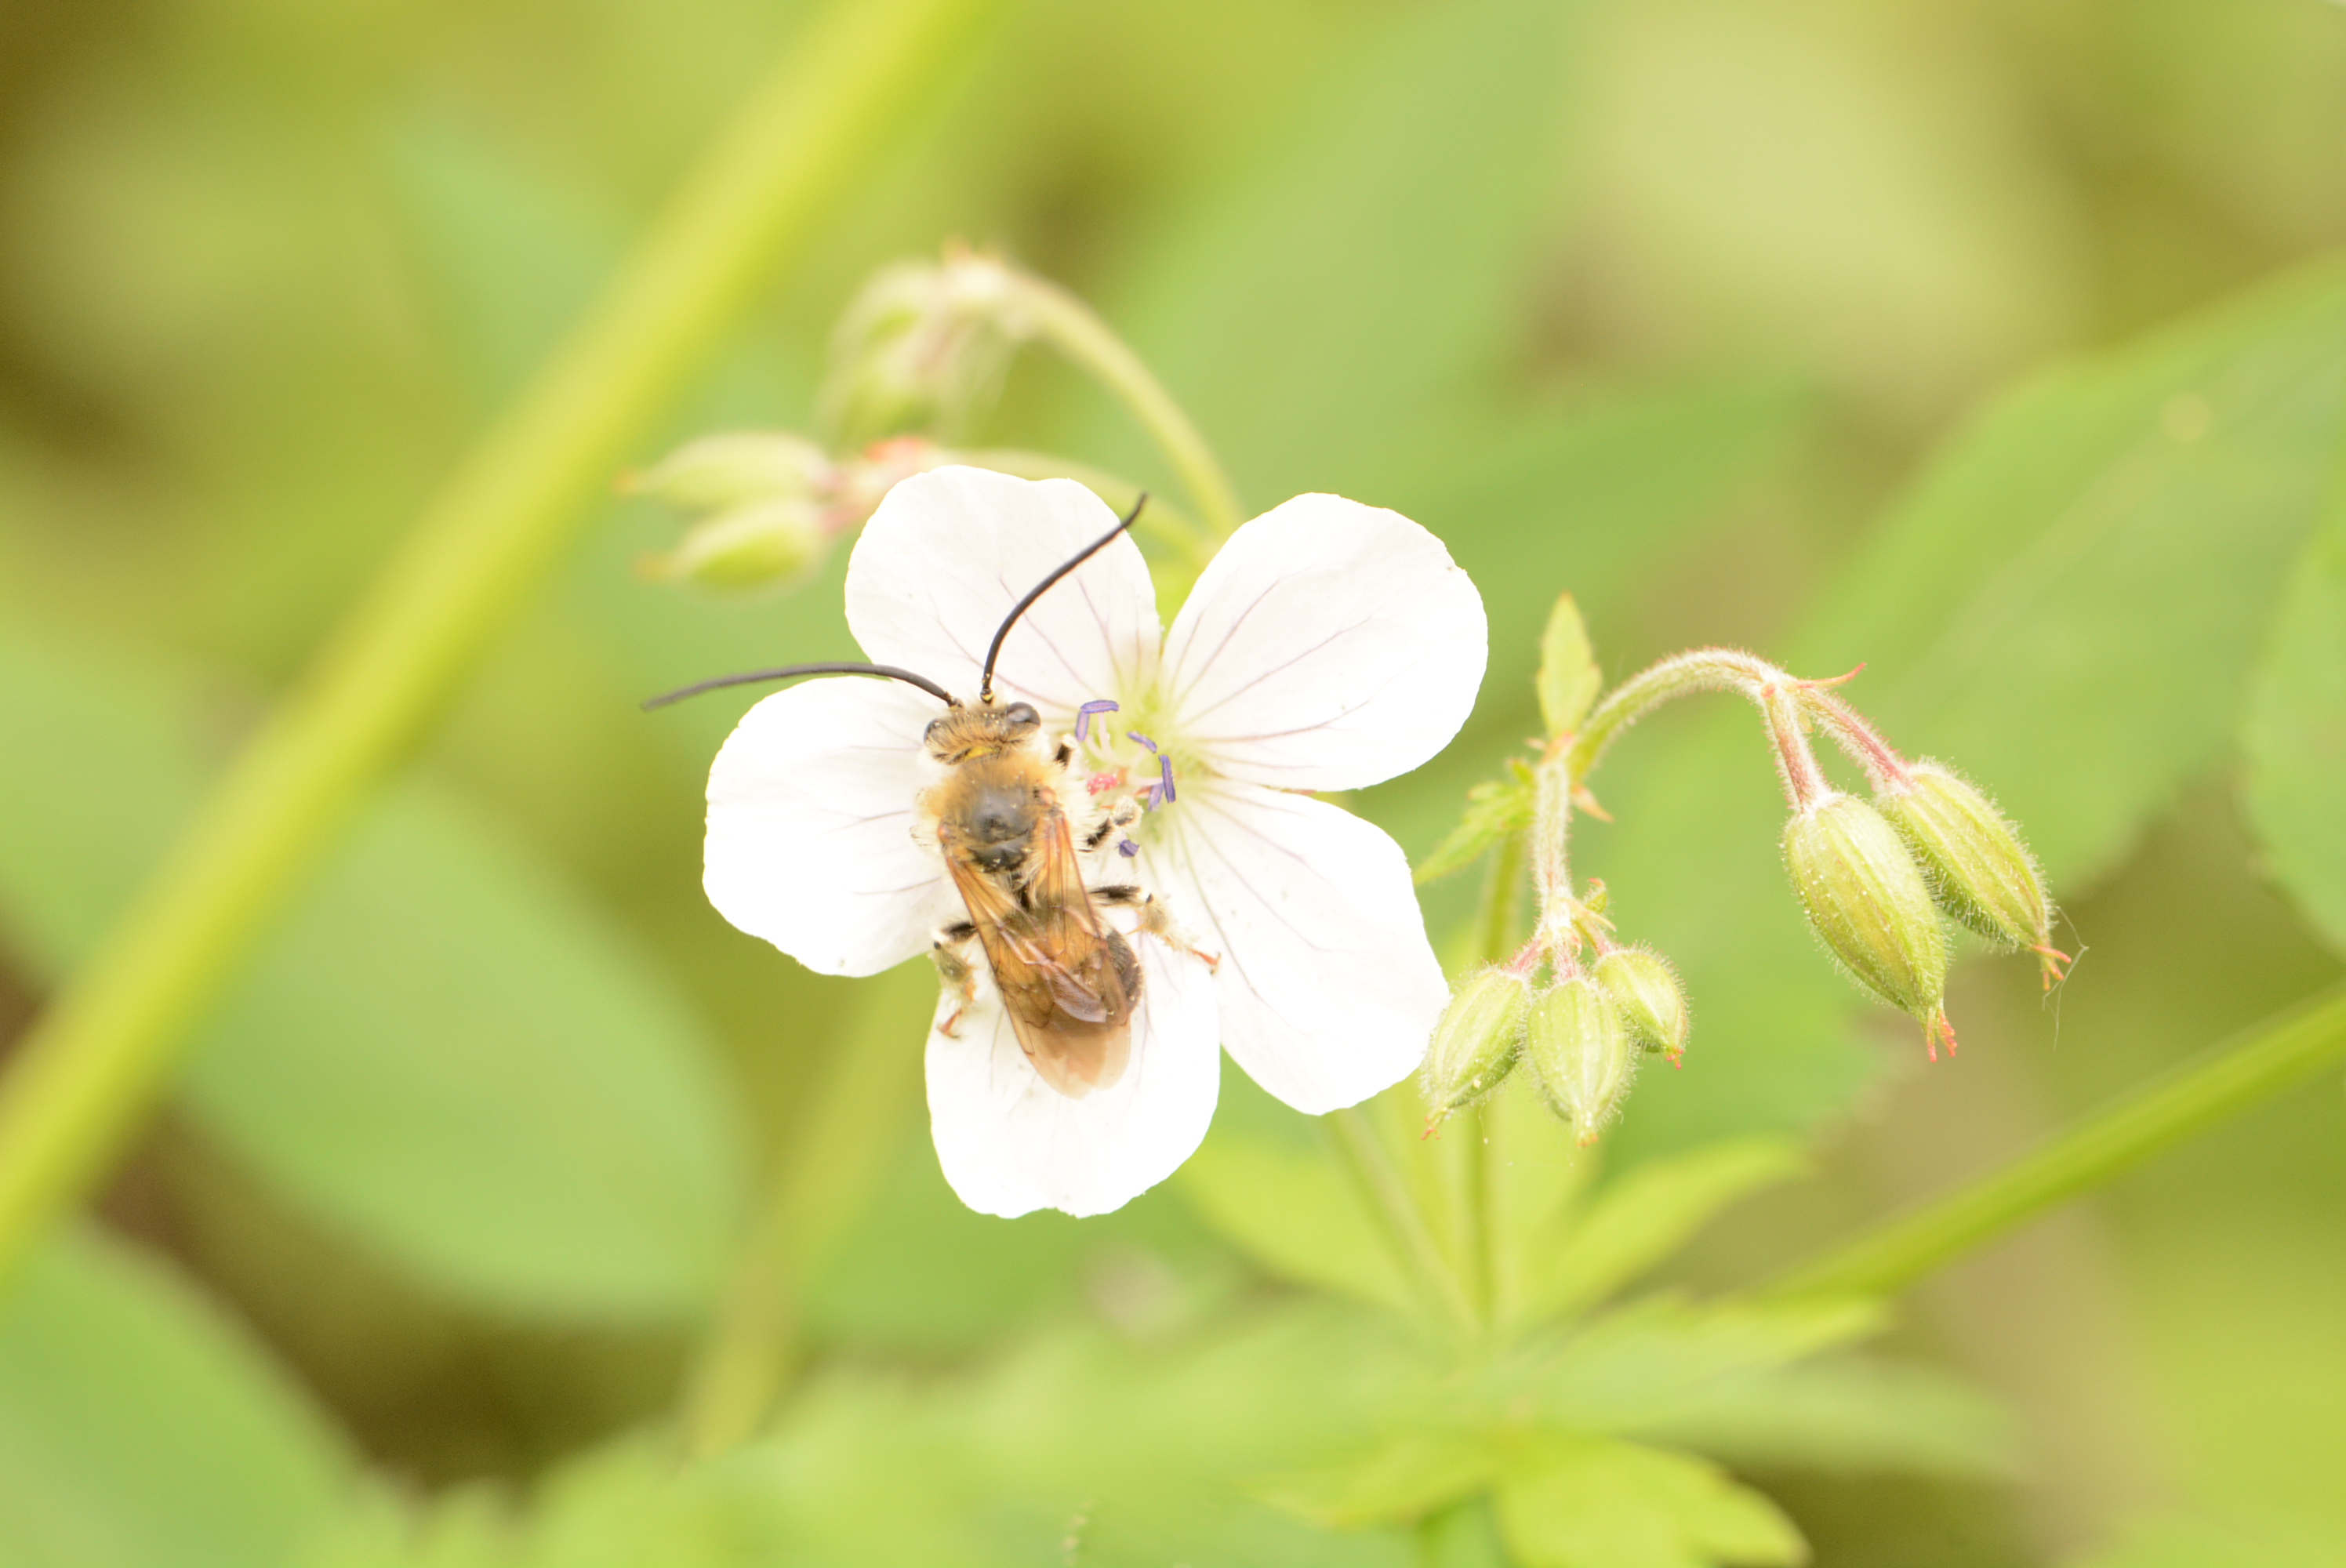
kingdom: Animalia
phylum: Arthropoda
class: Insecta
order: Hymenoptera
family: Apidae
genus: Eucera
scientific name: Eucera longicornis
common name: Long-horned bee
